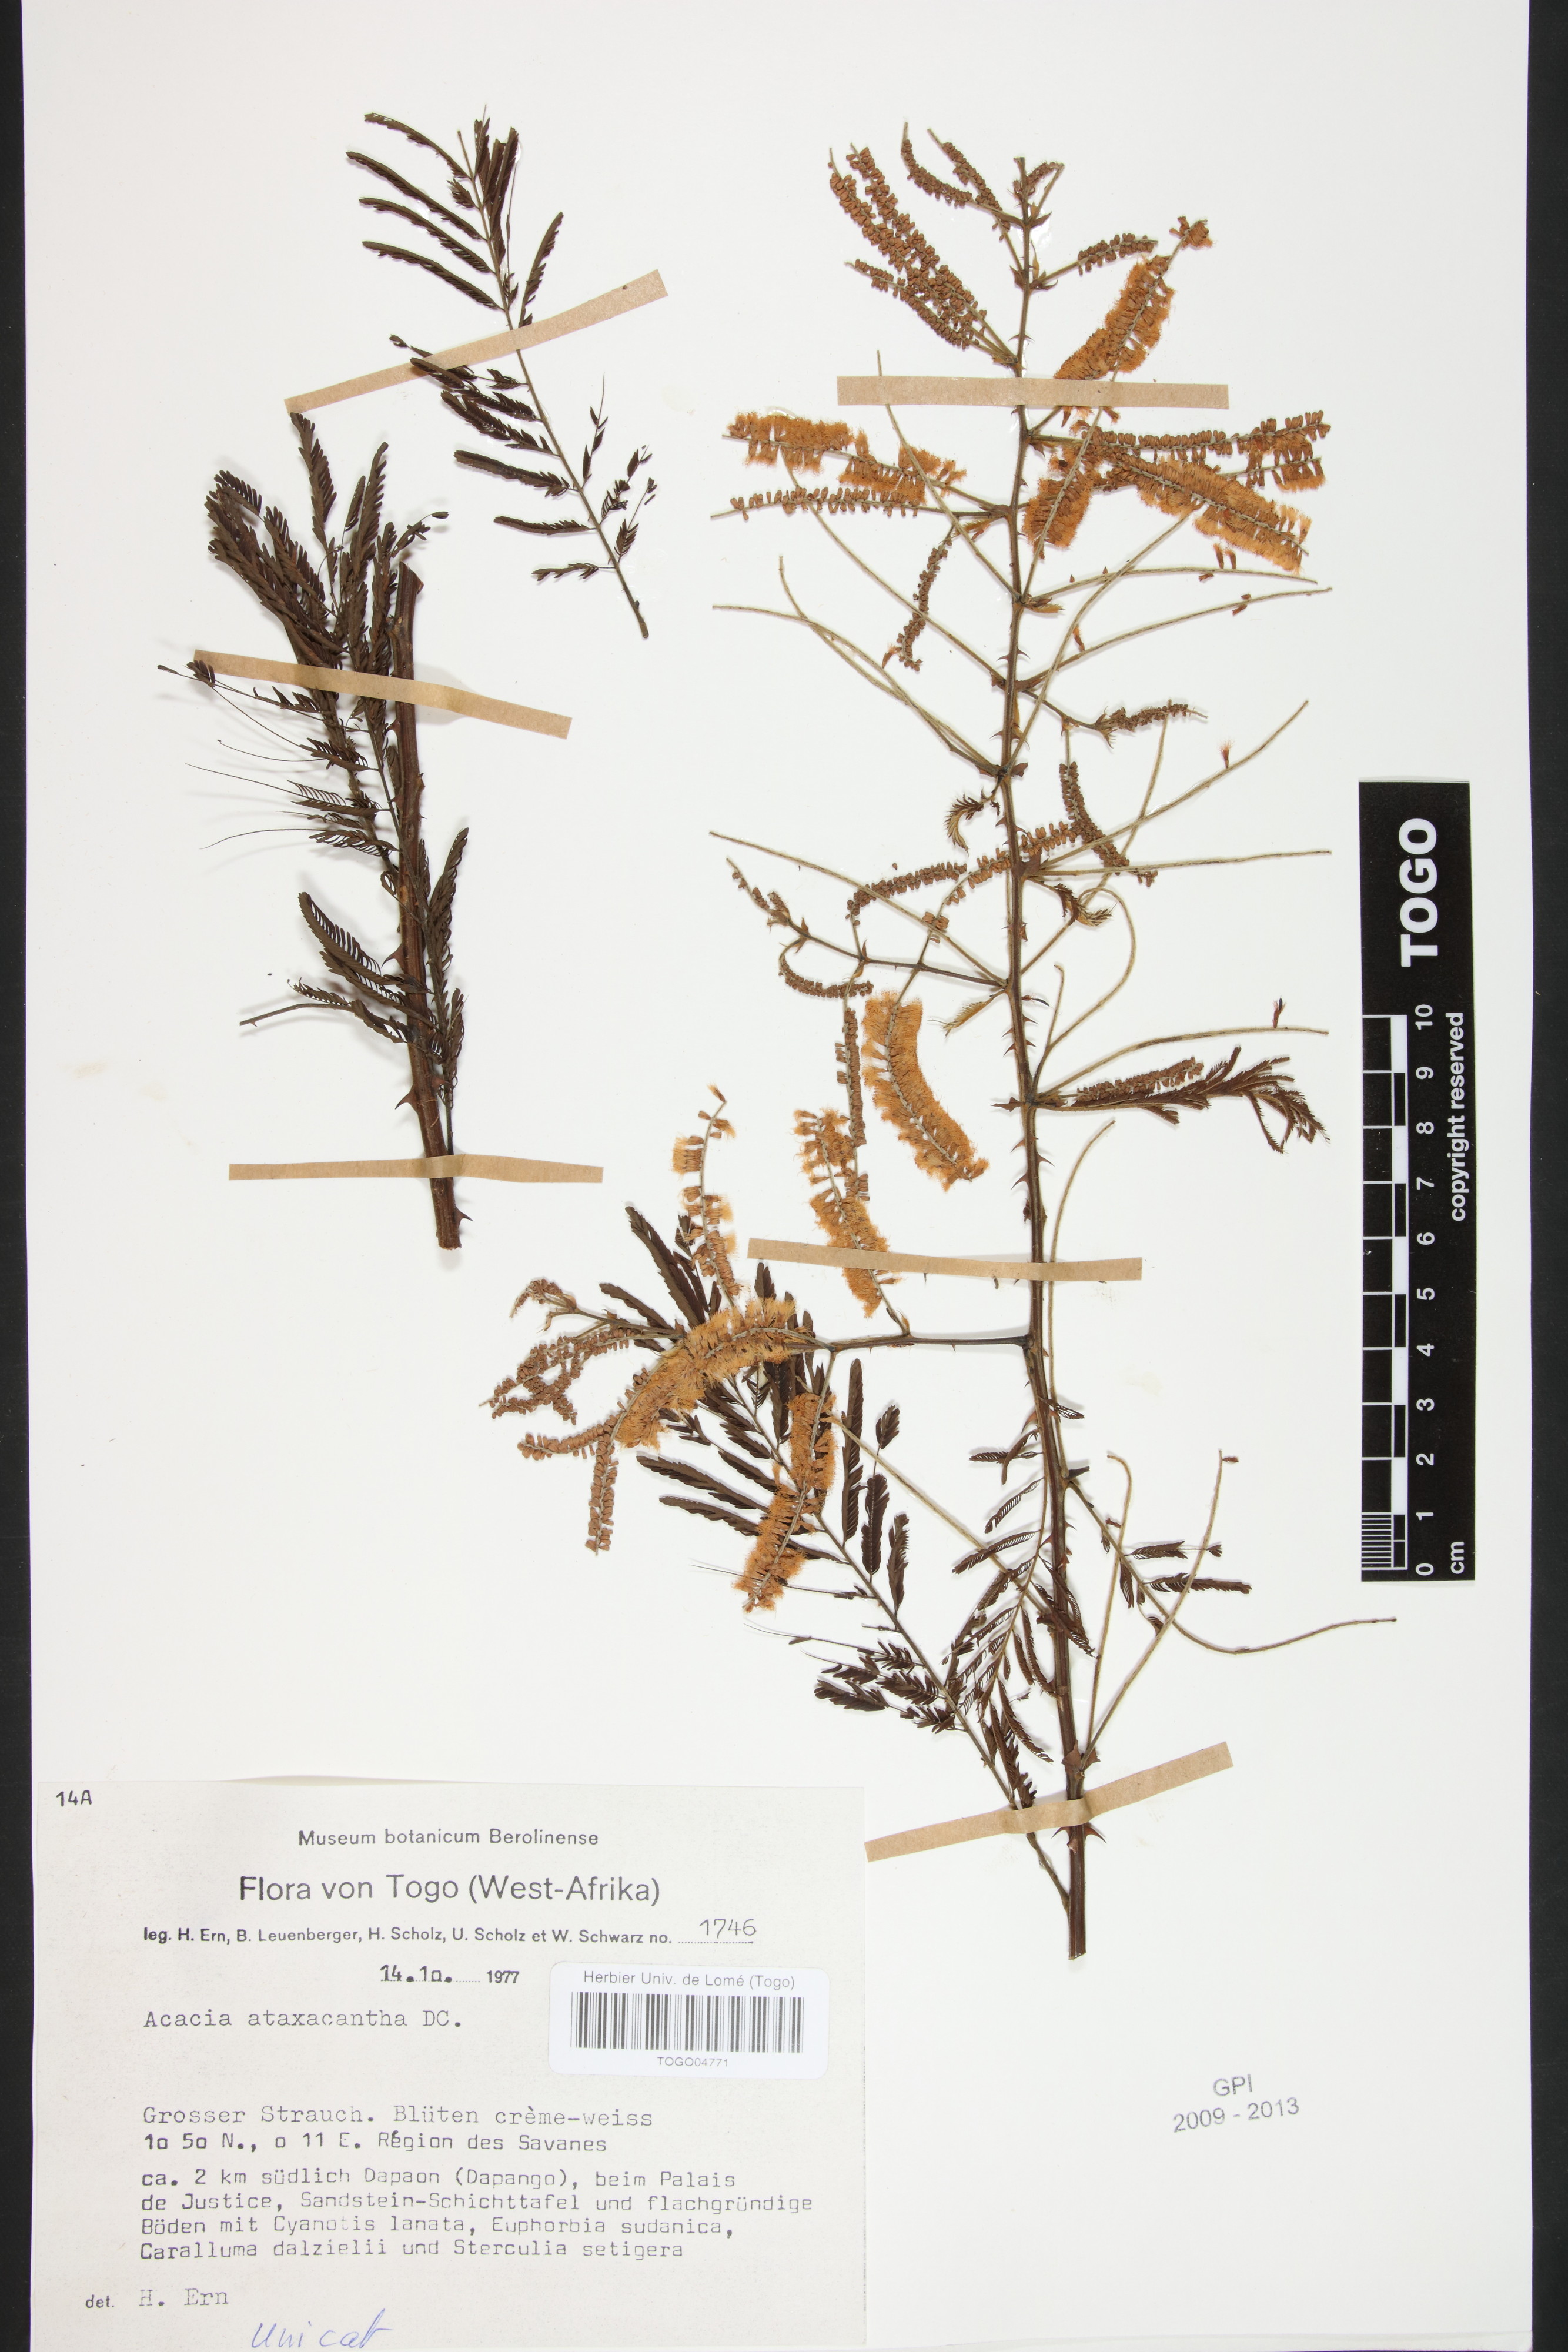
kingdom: Plantae
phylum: Tracheophyta
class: Magnoliopsida
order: Fabales
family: Fabaceae
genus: Senegalia
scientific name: Senegalia ataxacantha
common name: Flame acacia
